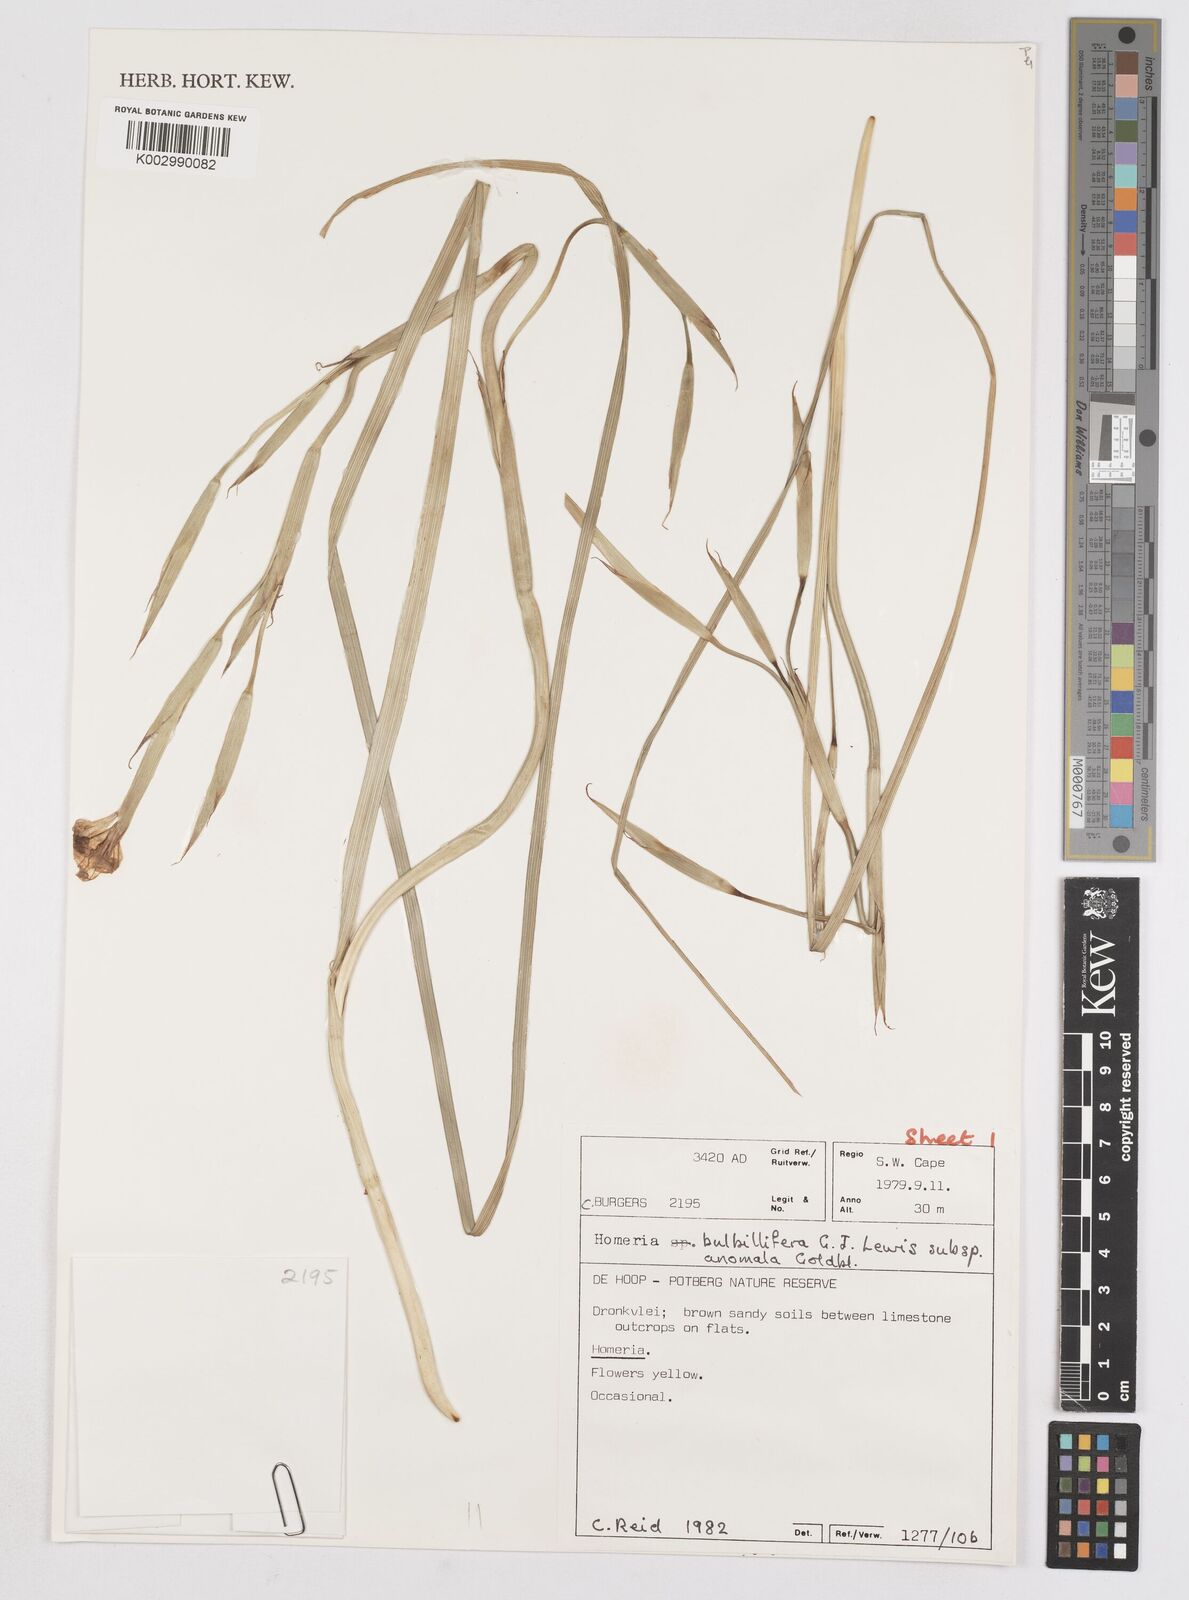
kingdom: Plantae
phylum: Tracheophyta
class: Liliopsida
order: Asparagales
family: Iridaceae
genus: Moraea
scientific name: Moraea bulbillifera
